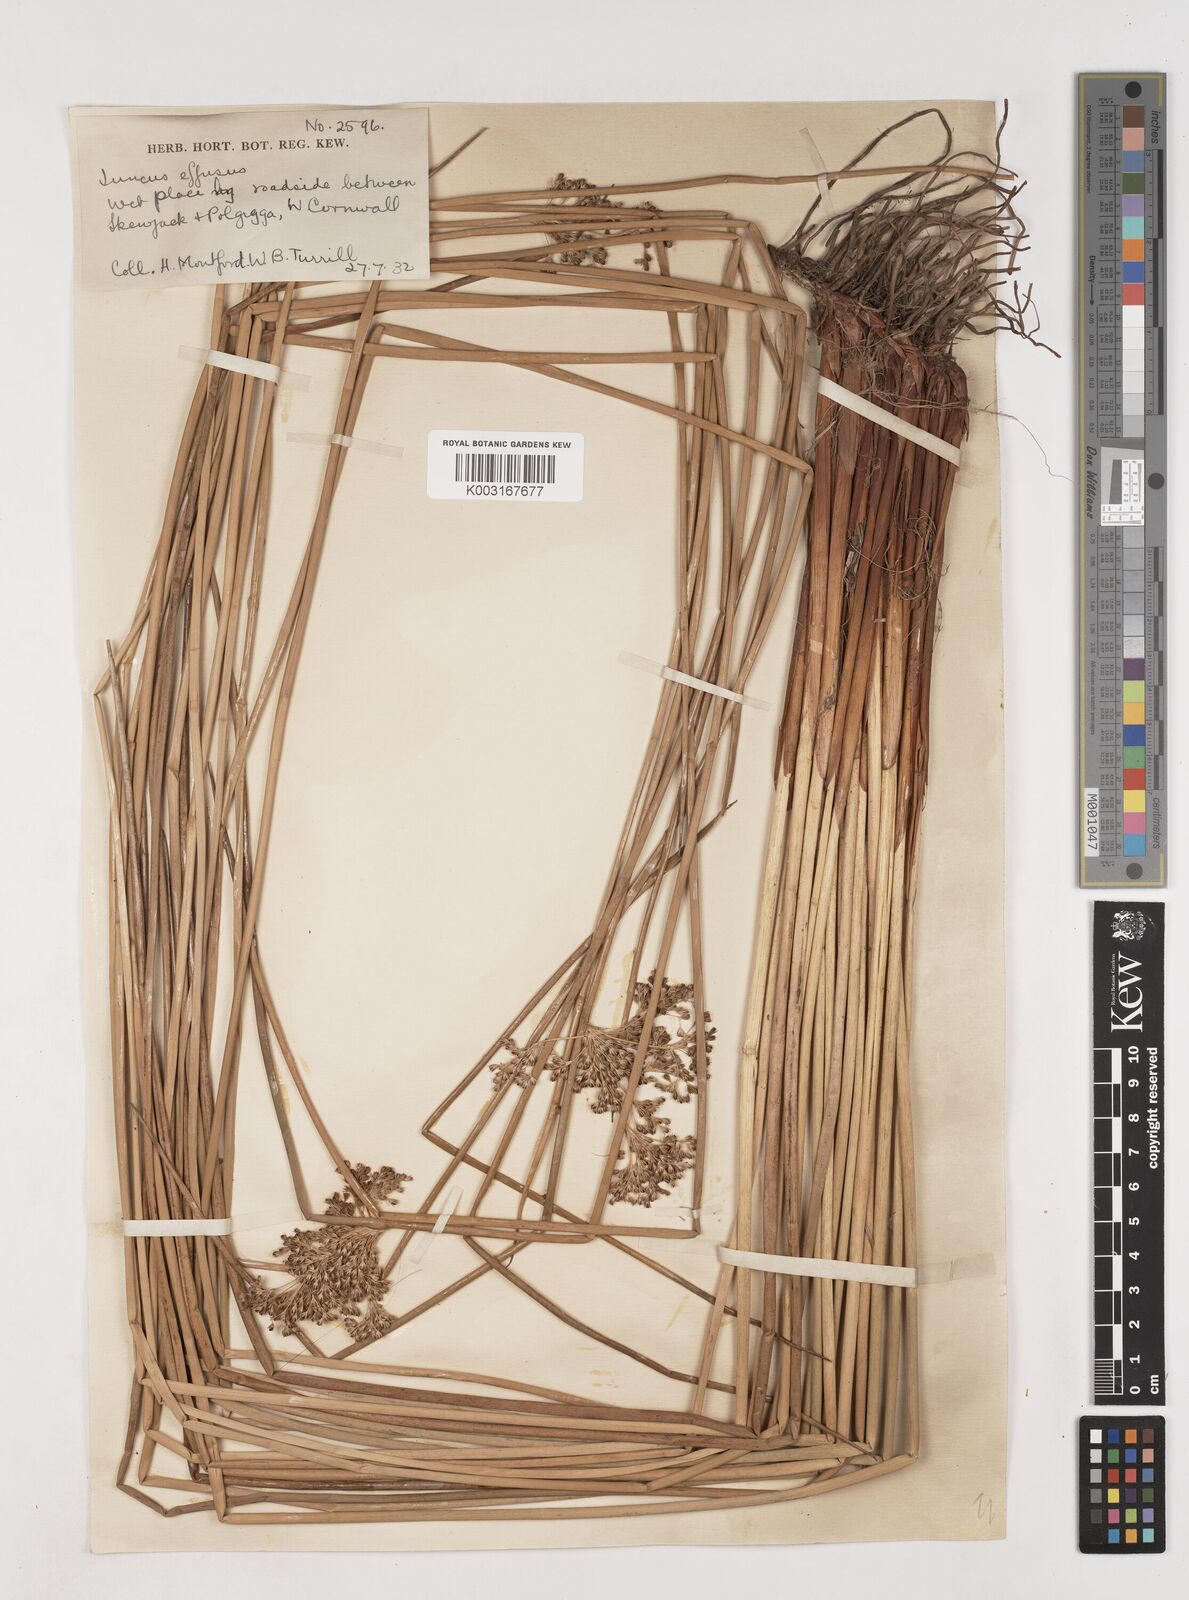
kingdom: Plantae
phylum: Tracheophyta
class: Liliopsida
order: Poales
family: Juncaceae
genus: Juncus
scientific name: Juncus effusus
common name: Soft rush
